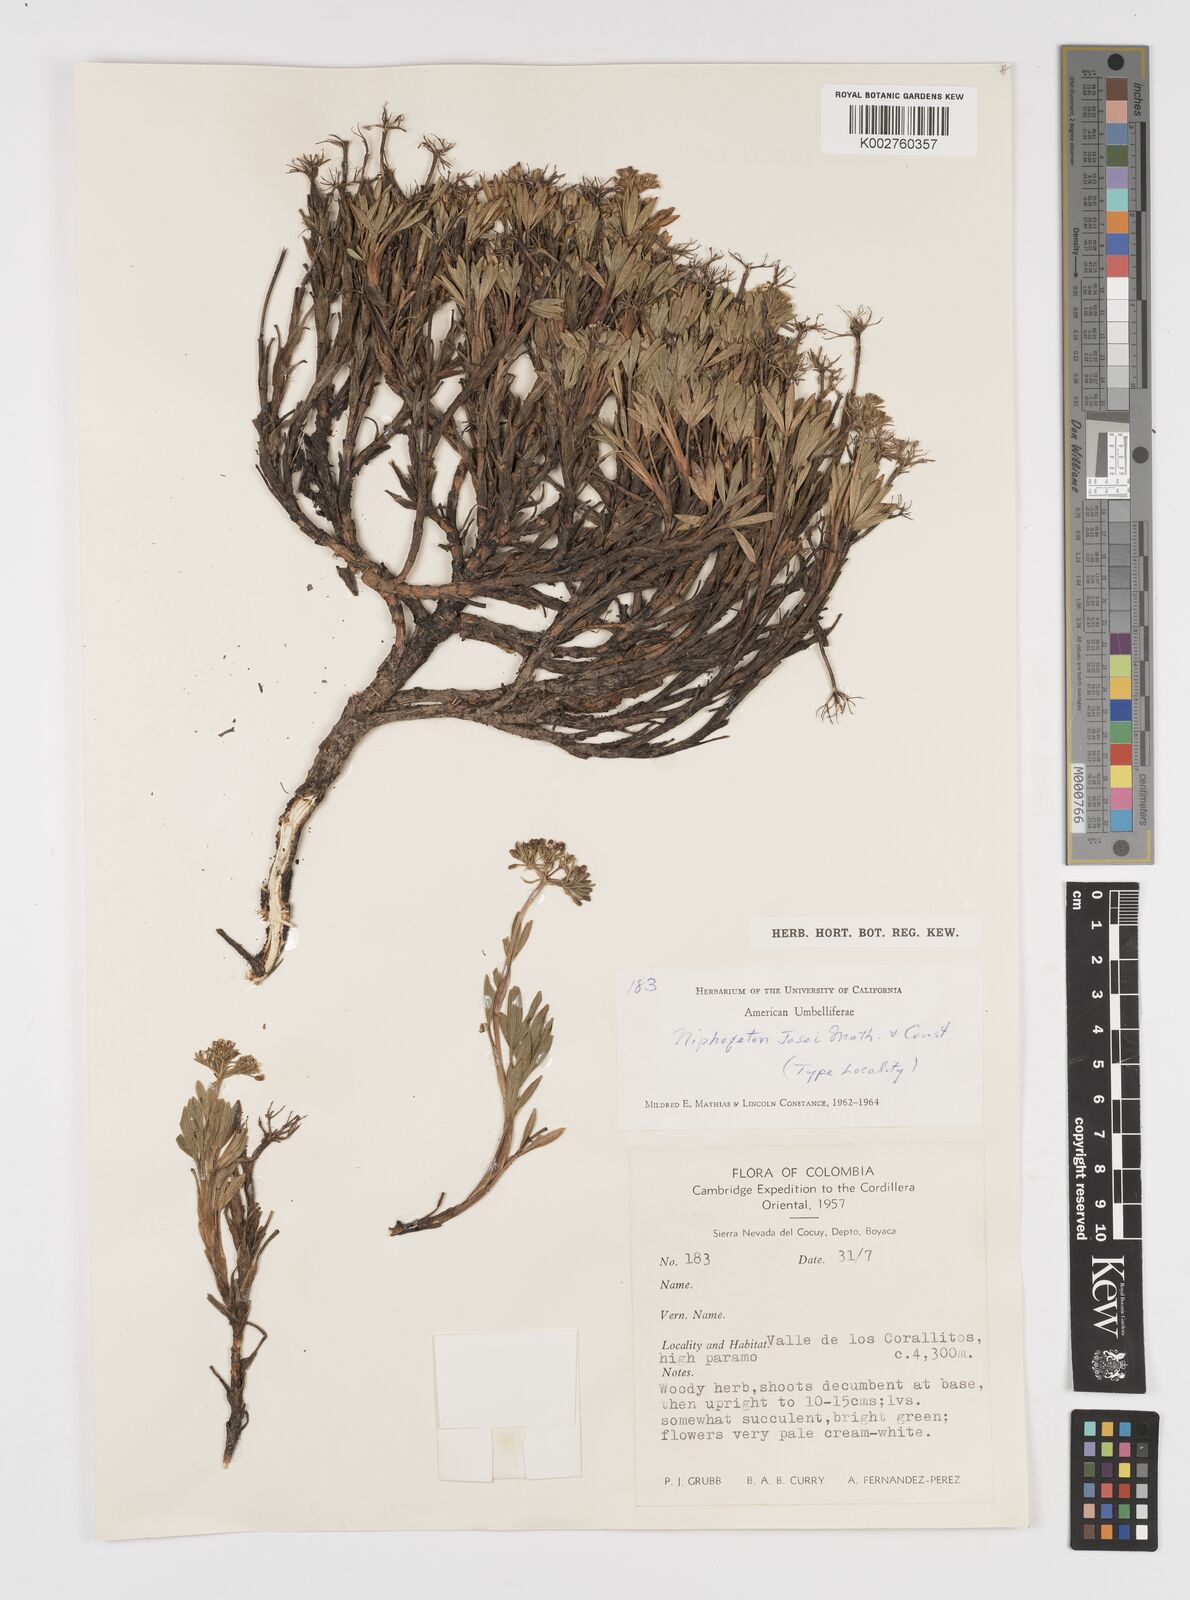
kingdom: Plantae
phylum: Tracheophyta
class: Magnoliopsida
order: Apiales
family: Apiaceae
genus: Niphogeton
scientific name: Niphogeton josei
